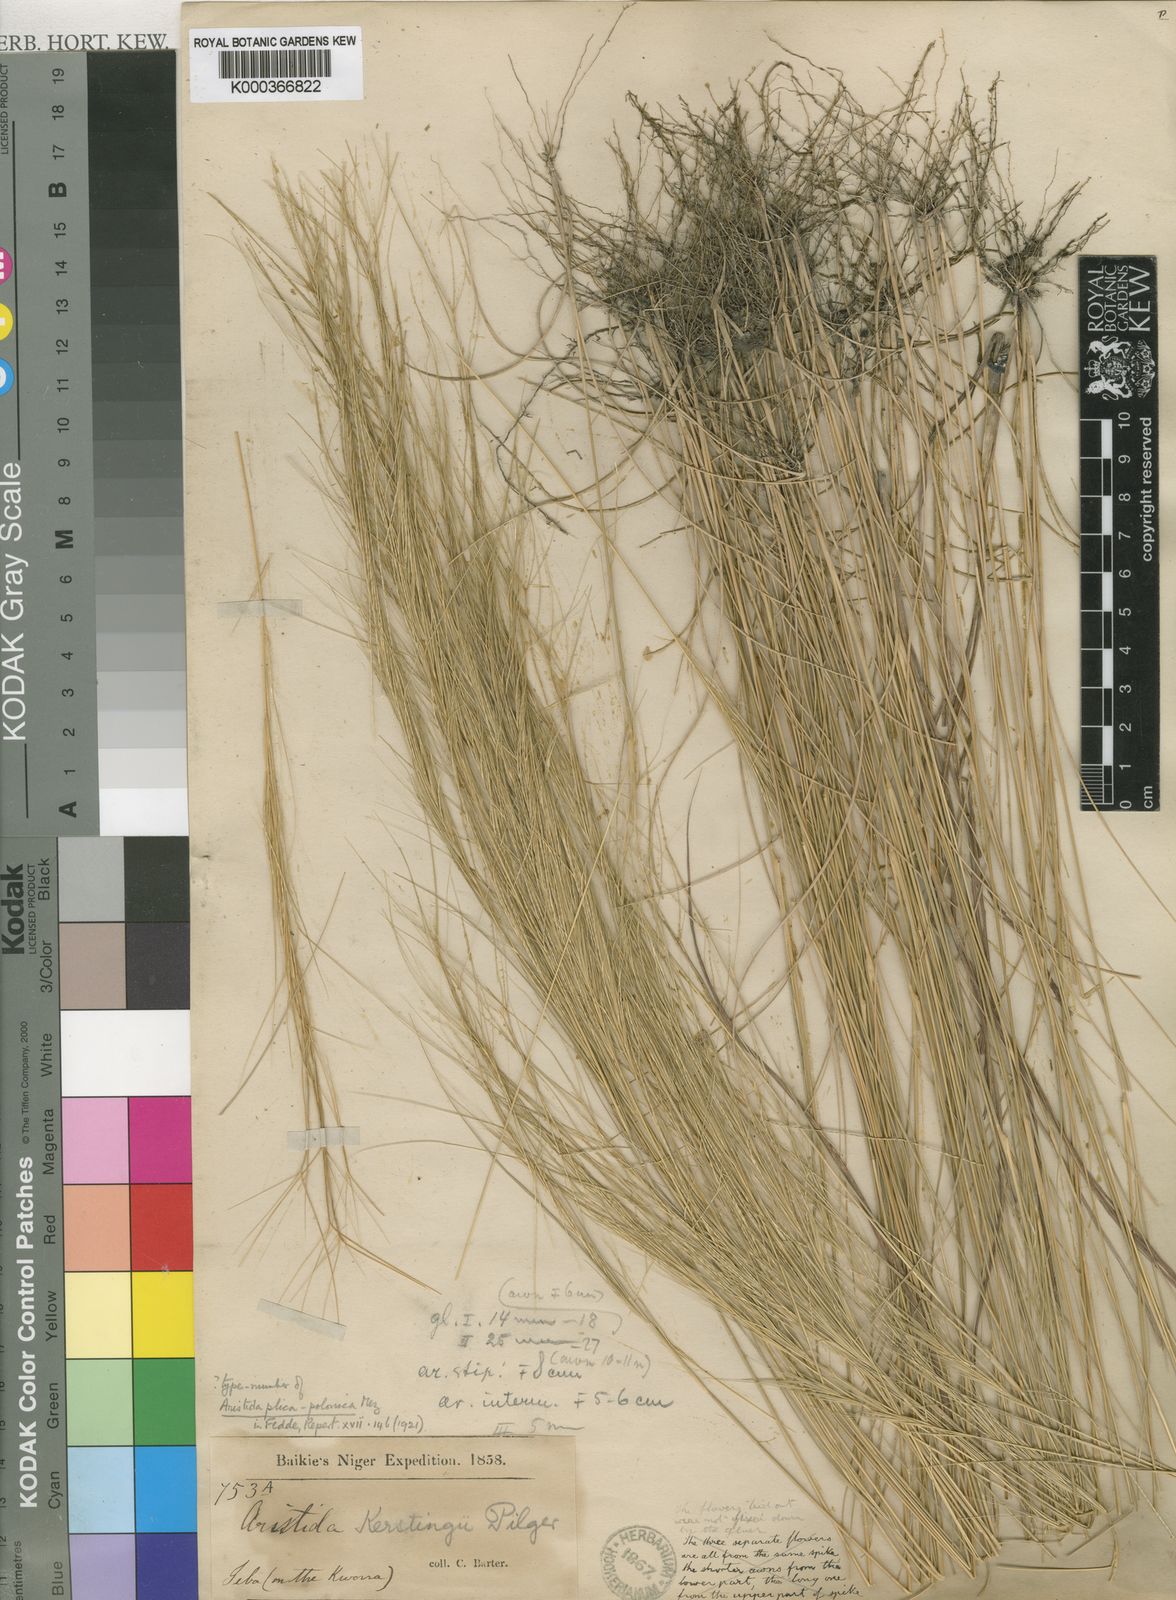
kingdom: Plantae
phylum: Tracheophyta
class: Liliopsida
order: Poales
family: Poaceae
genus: Aristida
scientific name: Aristida kerstingii
